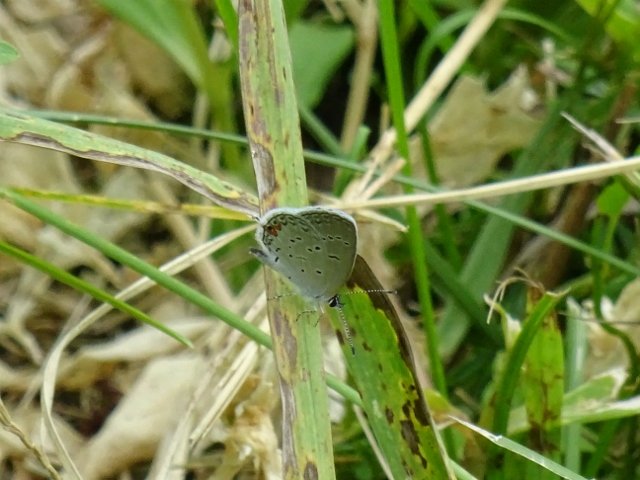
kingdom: Animalia
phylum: Arthropoda
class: Insecta
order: Lepidoptera
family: Lycaenidae
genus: Elkalyce
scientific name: Elkalyce comyntas
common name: Eastern Tailed-Blue
